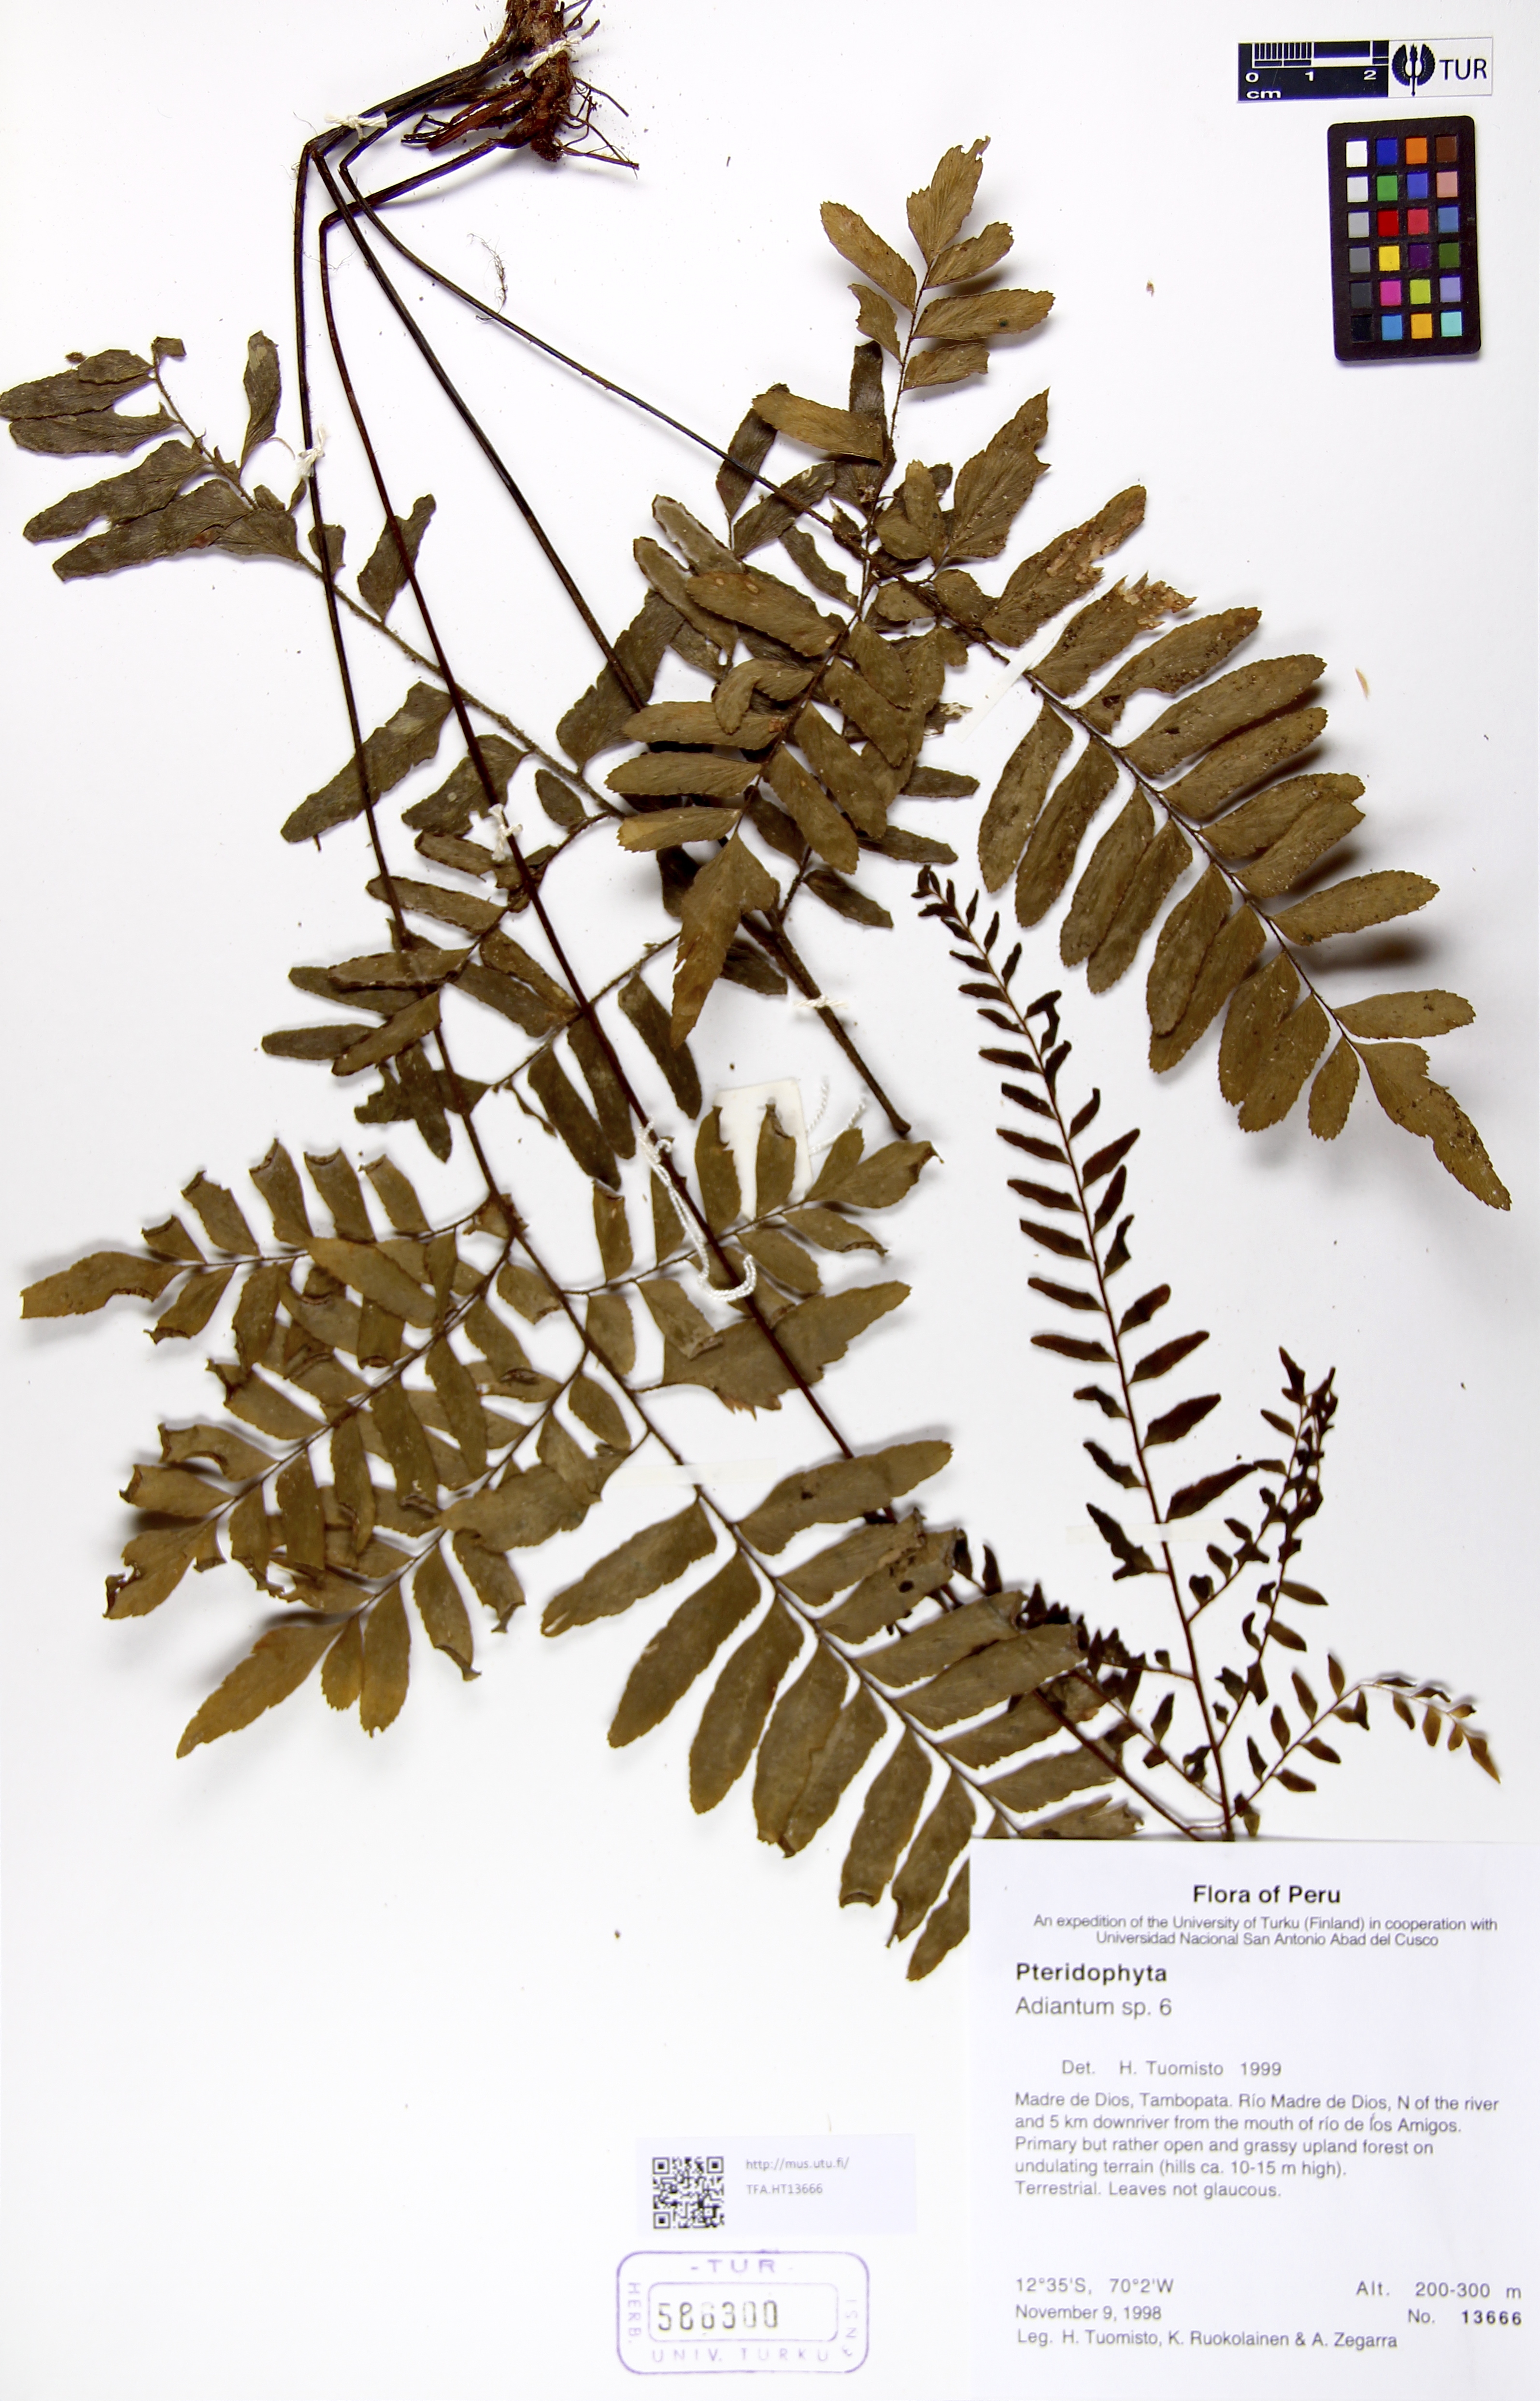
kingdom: Plantae
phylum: Tracheophyta
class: Polypodiopsida
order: Polypodiales
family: Pteridaceae
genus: Adiantum
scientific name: Adiantum
